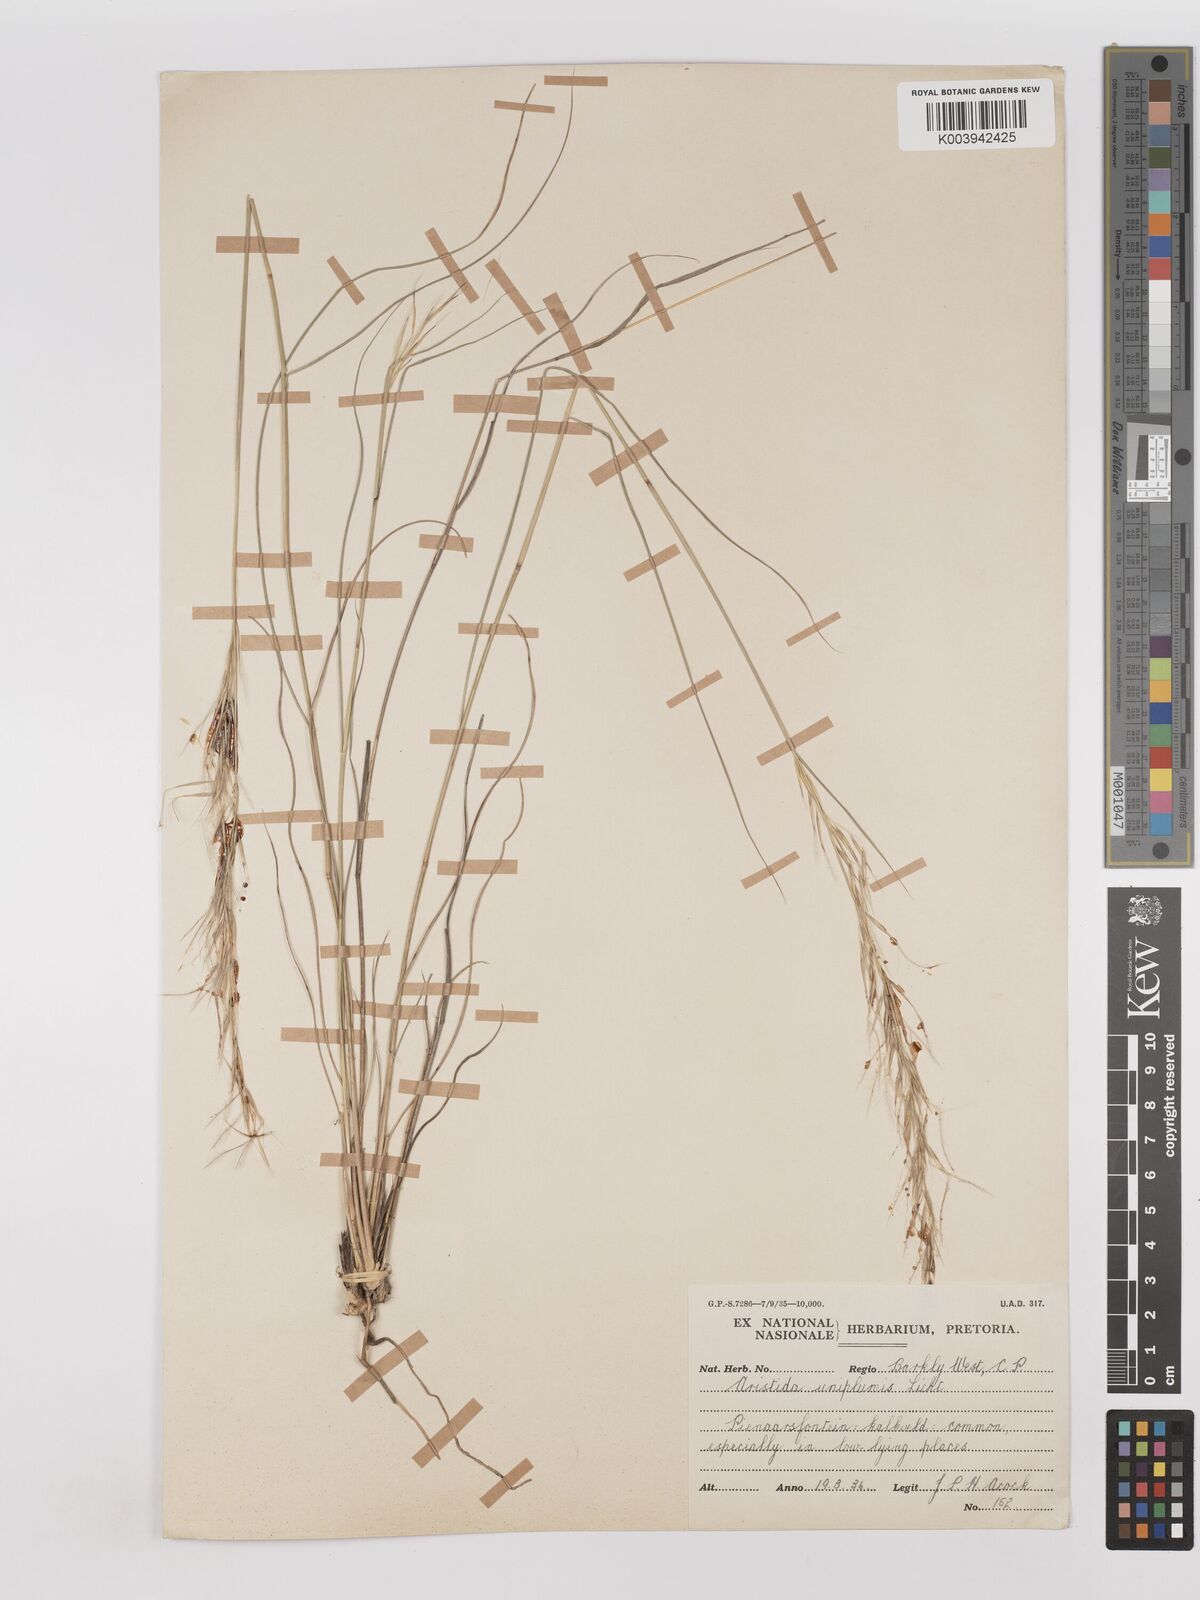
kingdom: Plantae
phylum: Tracheophyta
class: Liliopsida
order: Poales
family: Poaceae
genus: Stipagrostis
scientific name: Stipagrostis uniplumis
